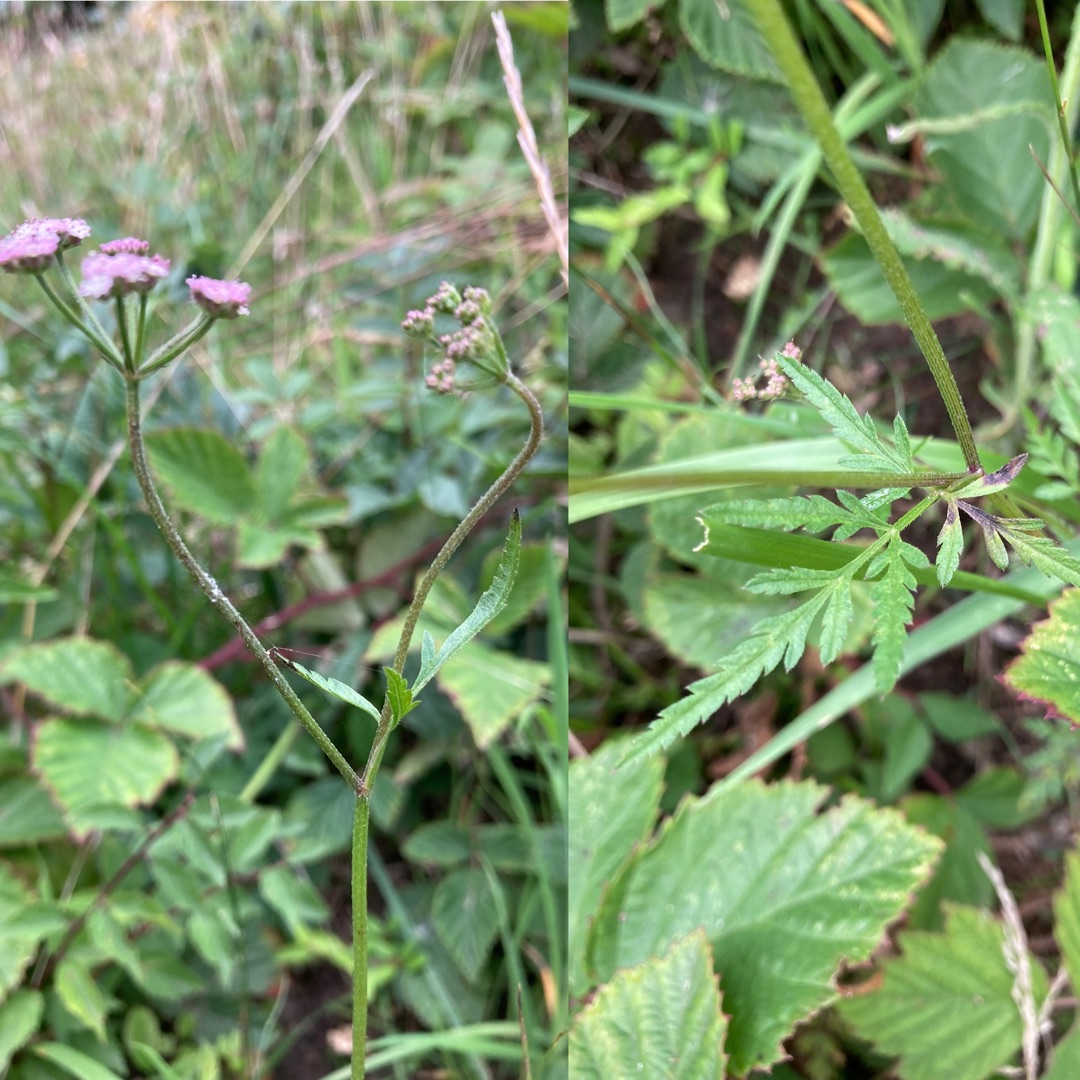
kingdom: Plantae
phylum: Tracheophyta
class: Magnoliopsida
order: Apiales
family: Apiaceae
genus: Torilis
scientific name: Torilis japonica
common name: Hvas randfrø
